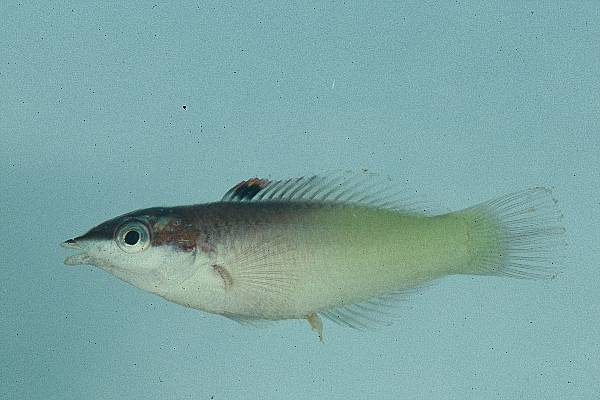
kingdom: Animalia
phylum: Chordata
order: Perciformes
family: Labridae
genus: Gomphosus
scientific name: Gomphosus caeruleus
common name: Bird wrasse
